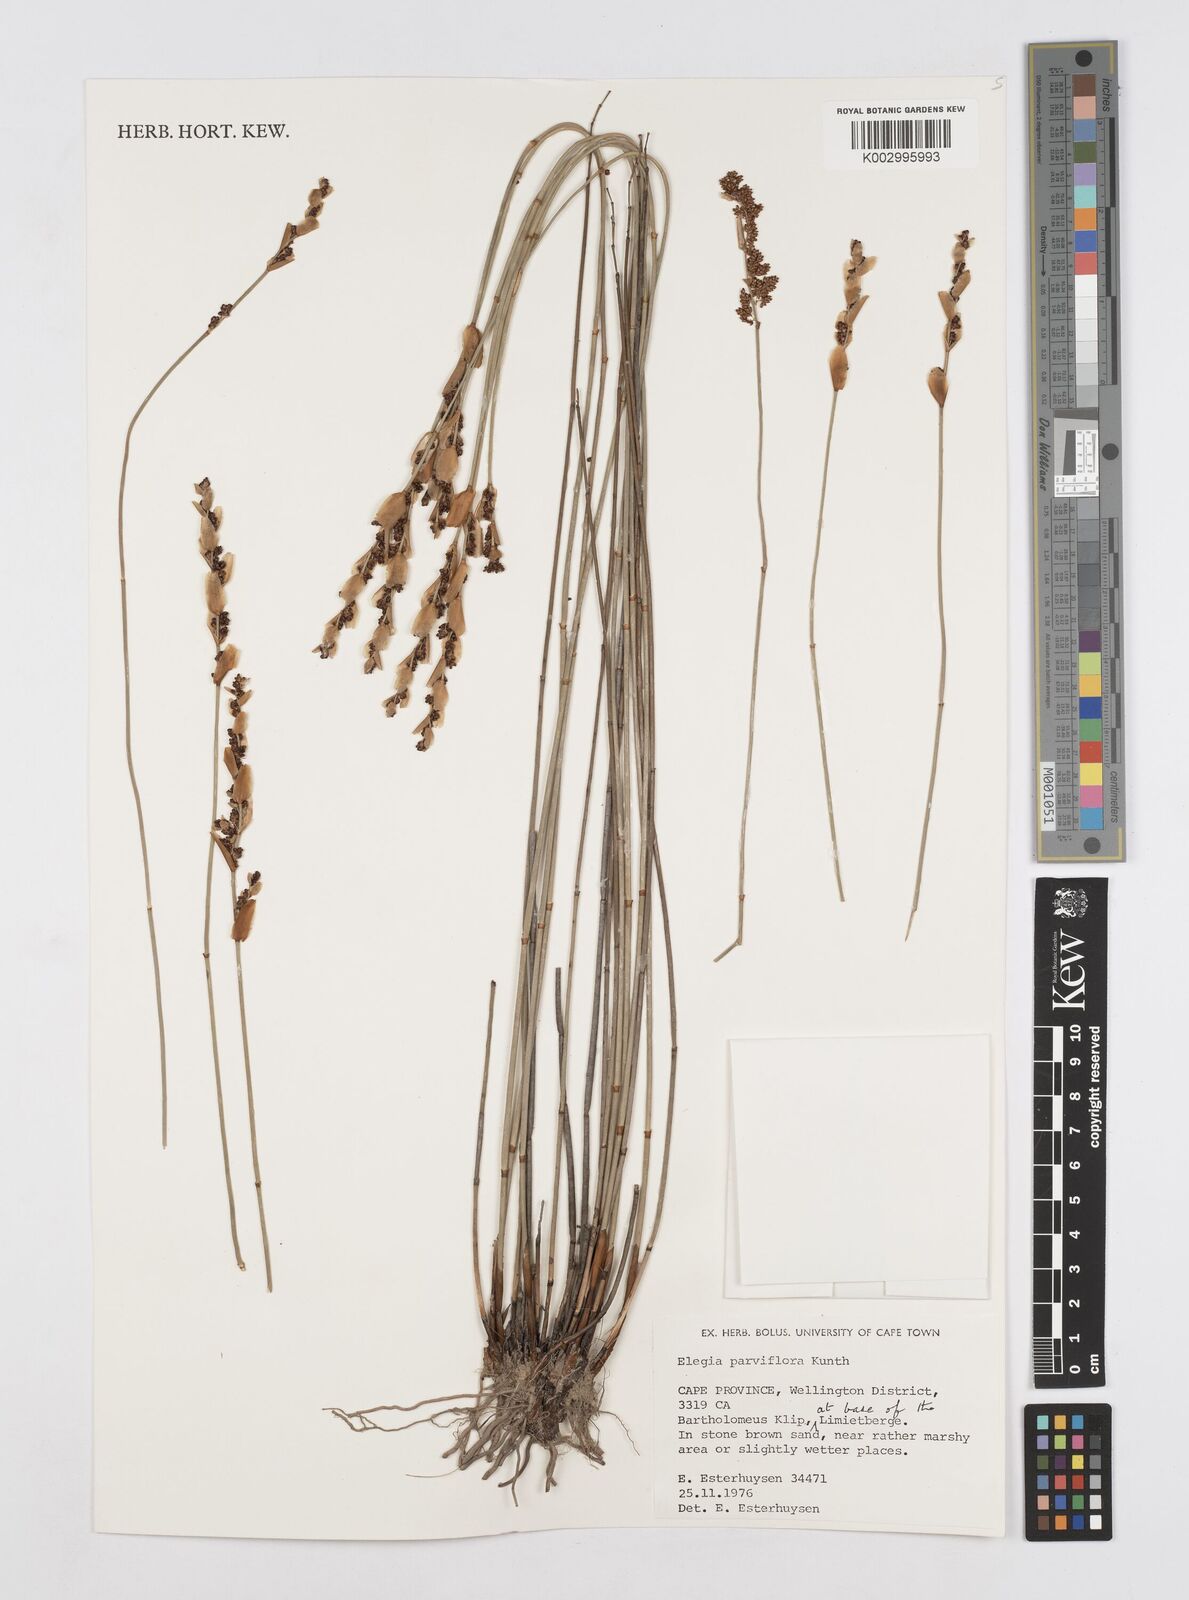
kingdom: Plantae
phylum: Tracheophyta
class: Liliopsida
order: Poales
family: Restionaceae
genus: Cannomois
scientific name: Cannomois parviflora
